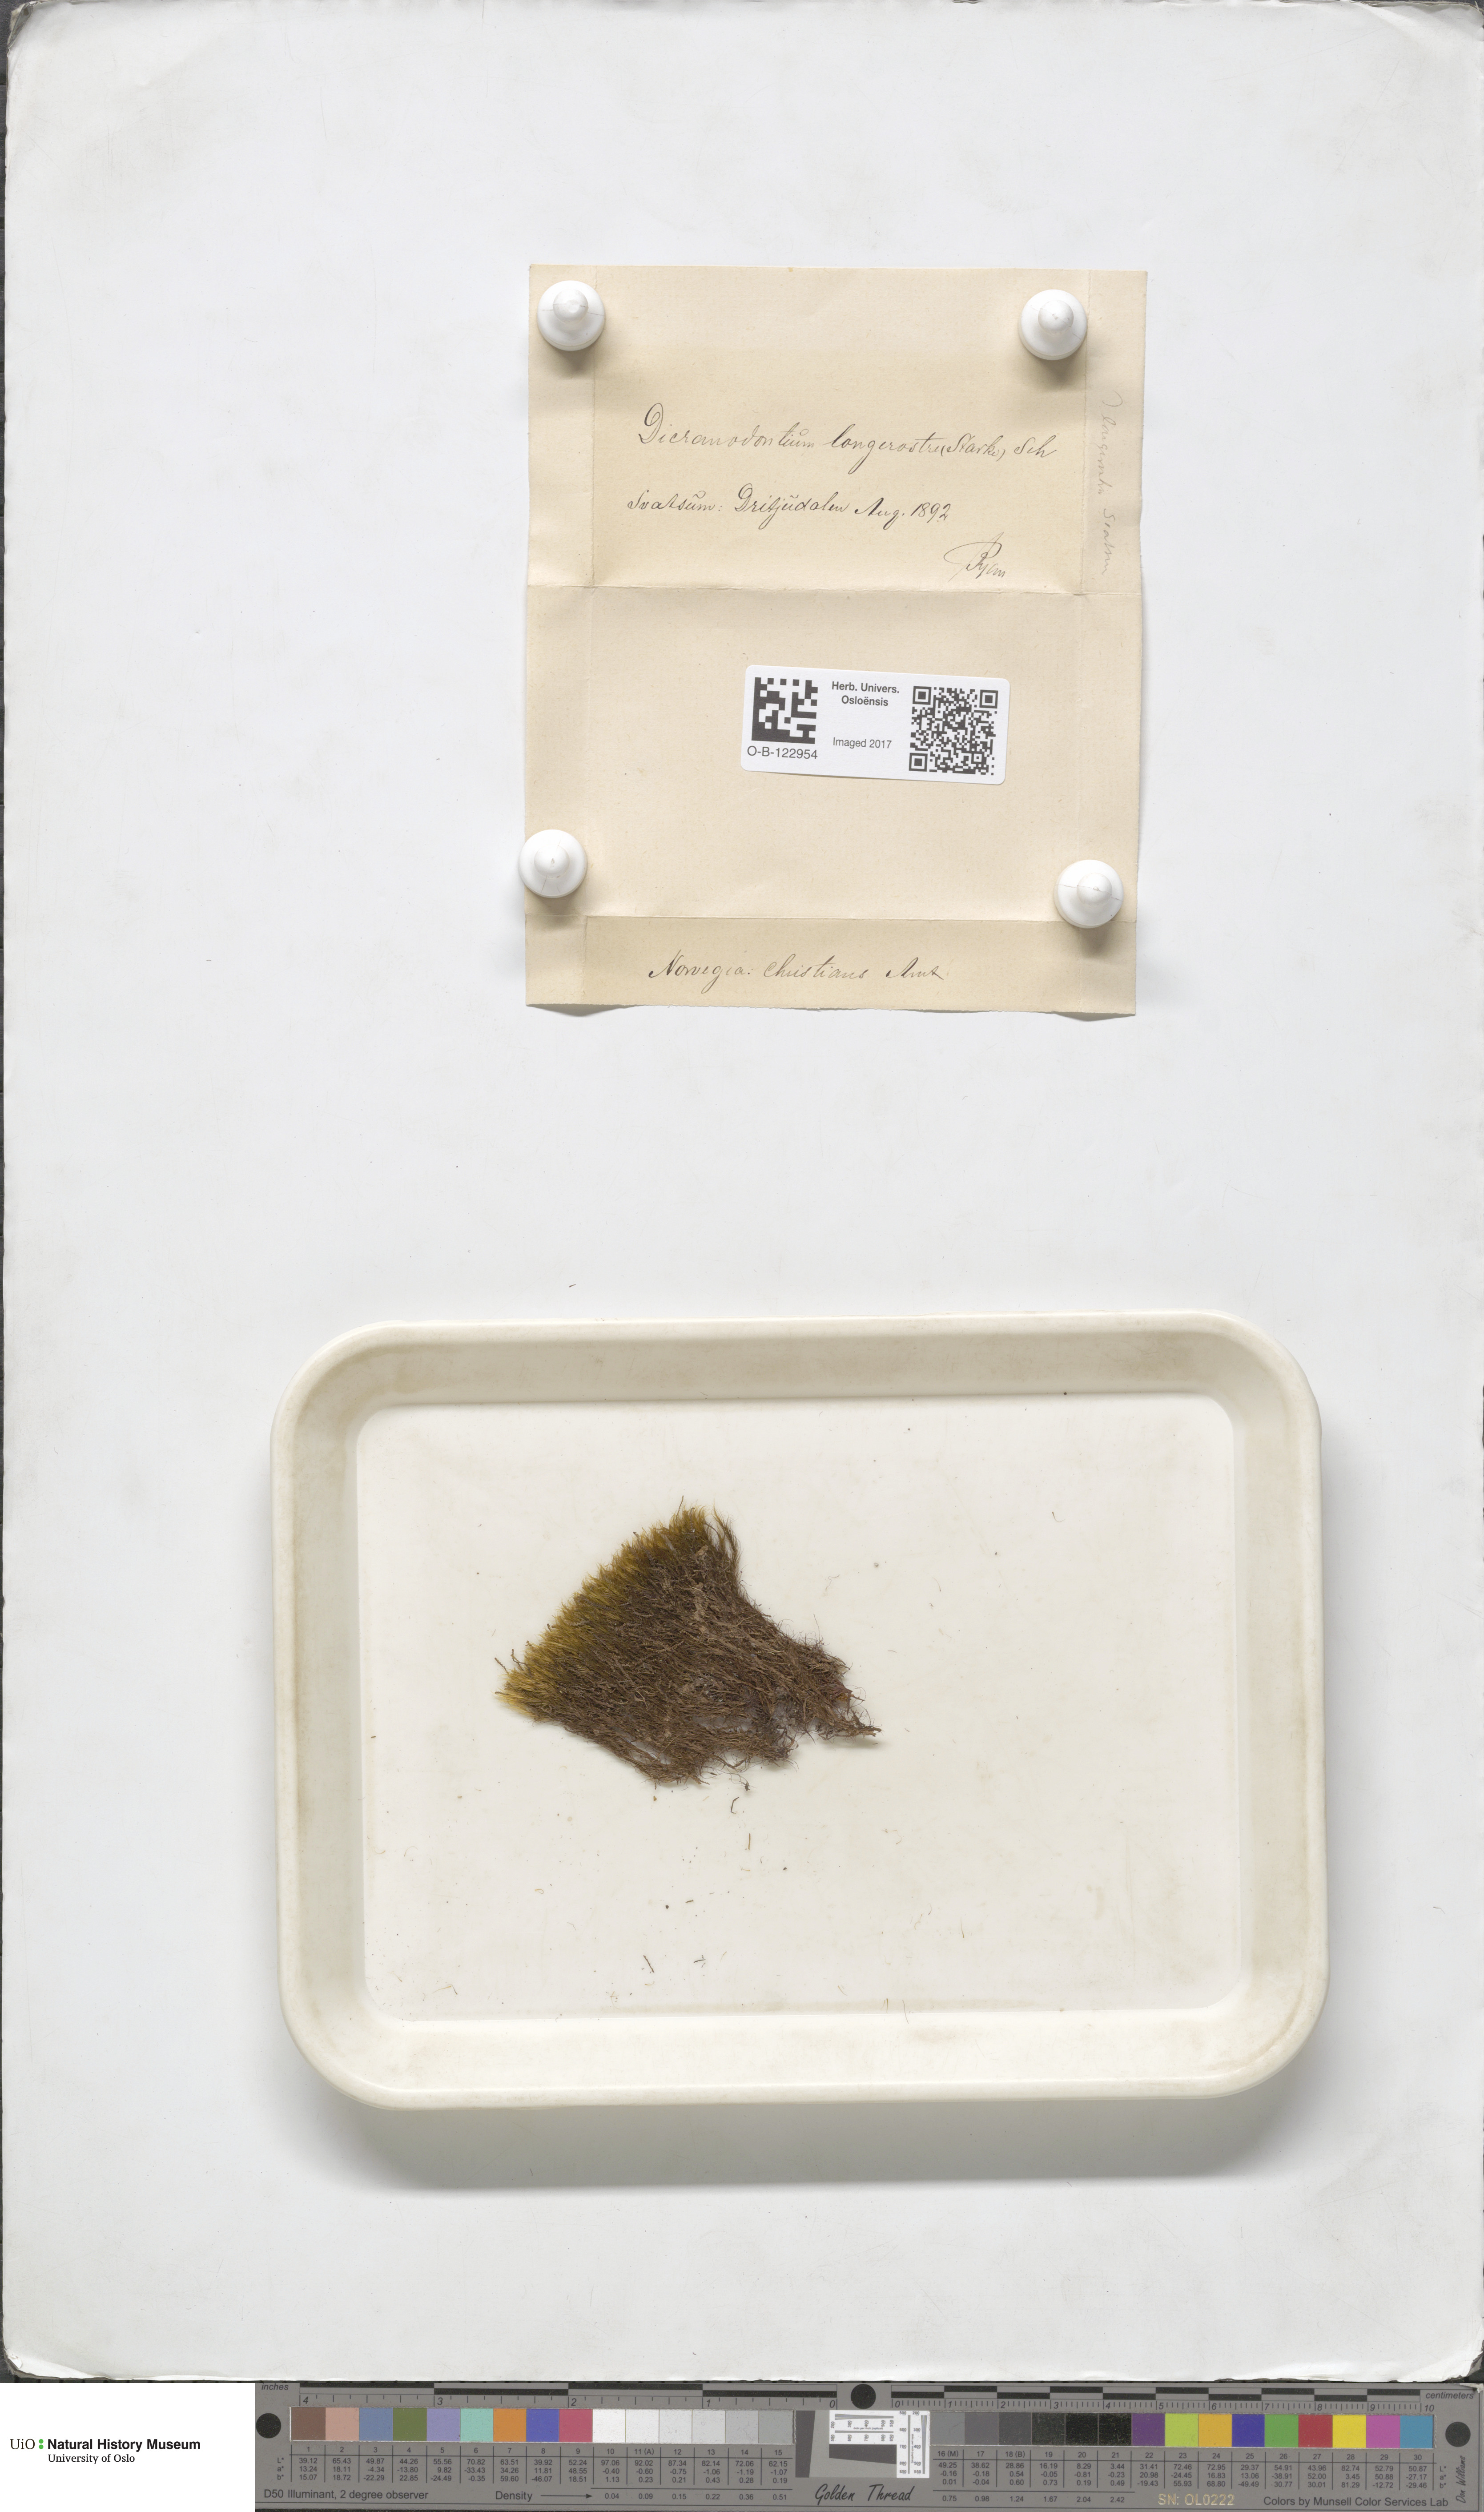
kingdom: Plantae
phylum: Bryophyta
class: Bryopsida
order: Dicranales
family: Leucobryaceae
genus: Dicranodontium
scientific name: Dicranodontium denudatum
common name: Beaked bow moss
